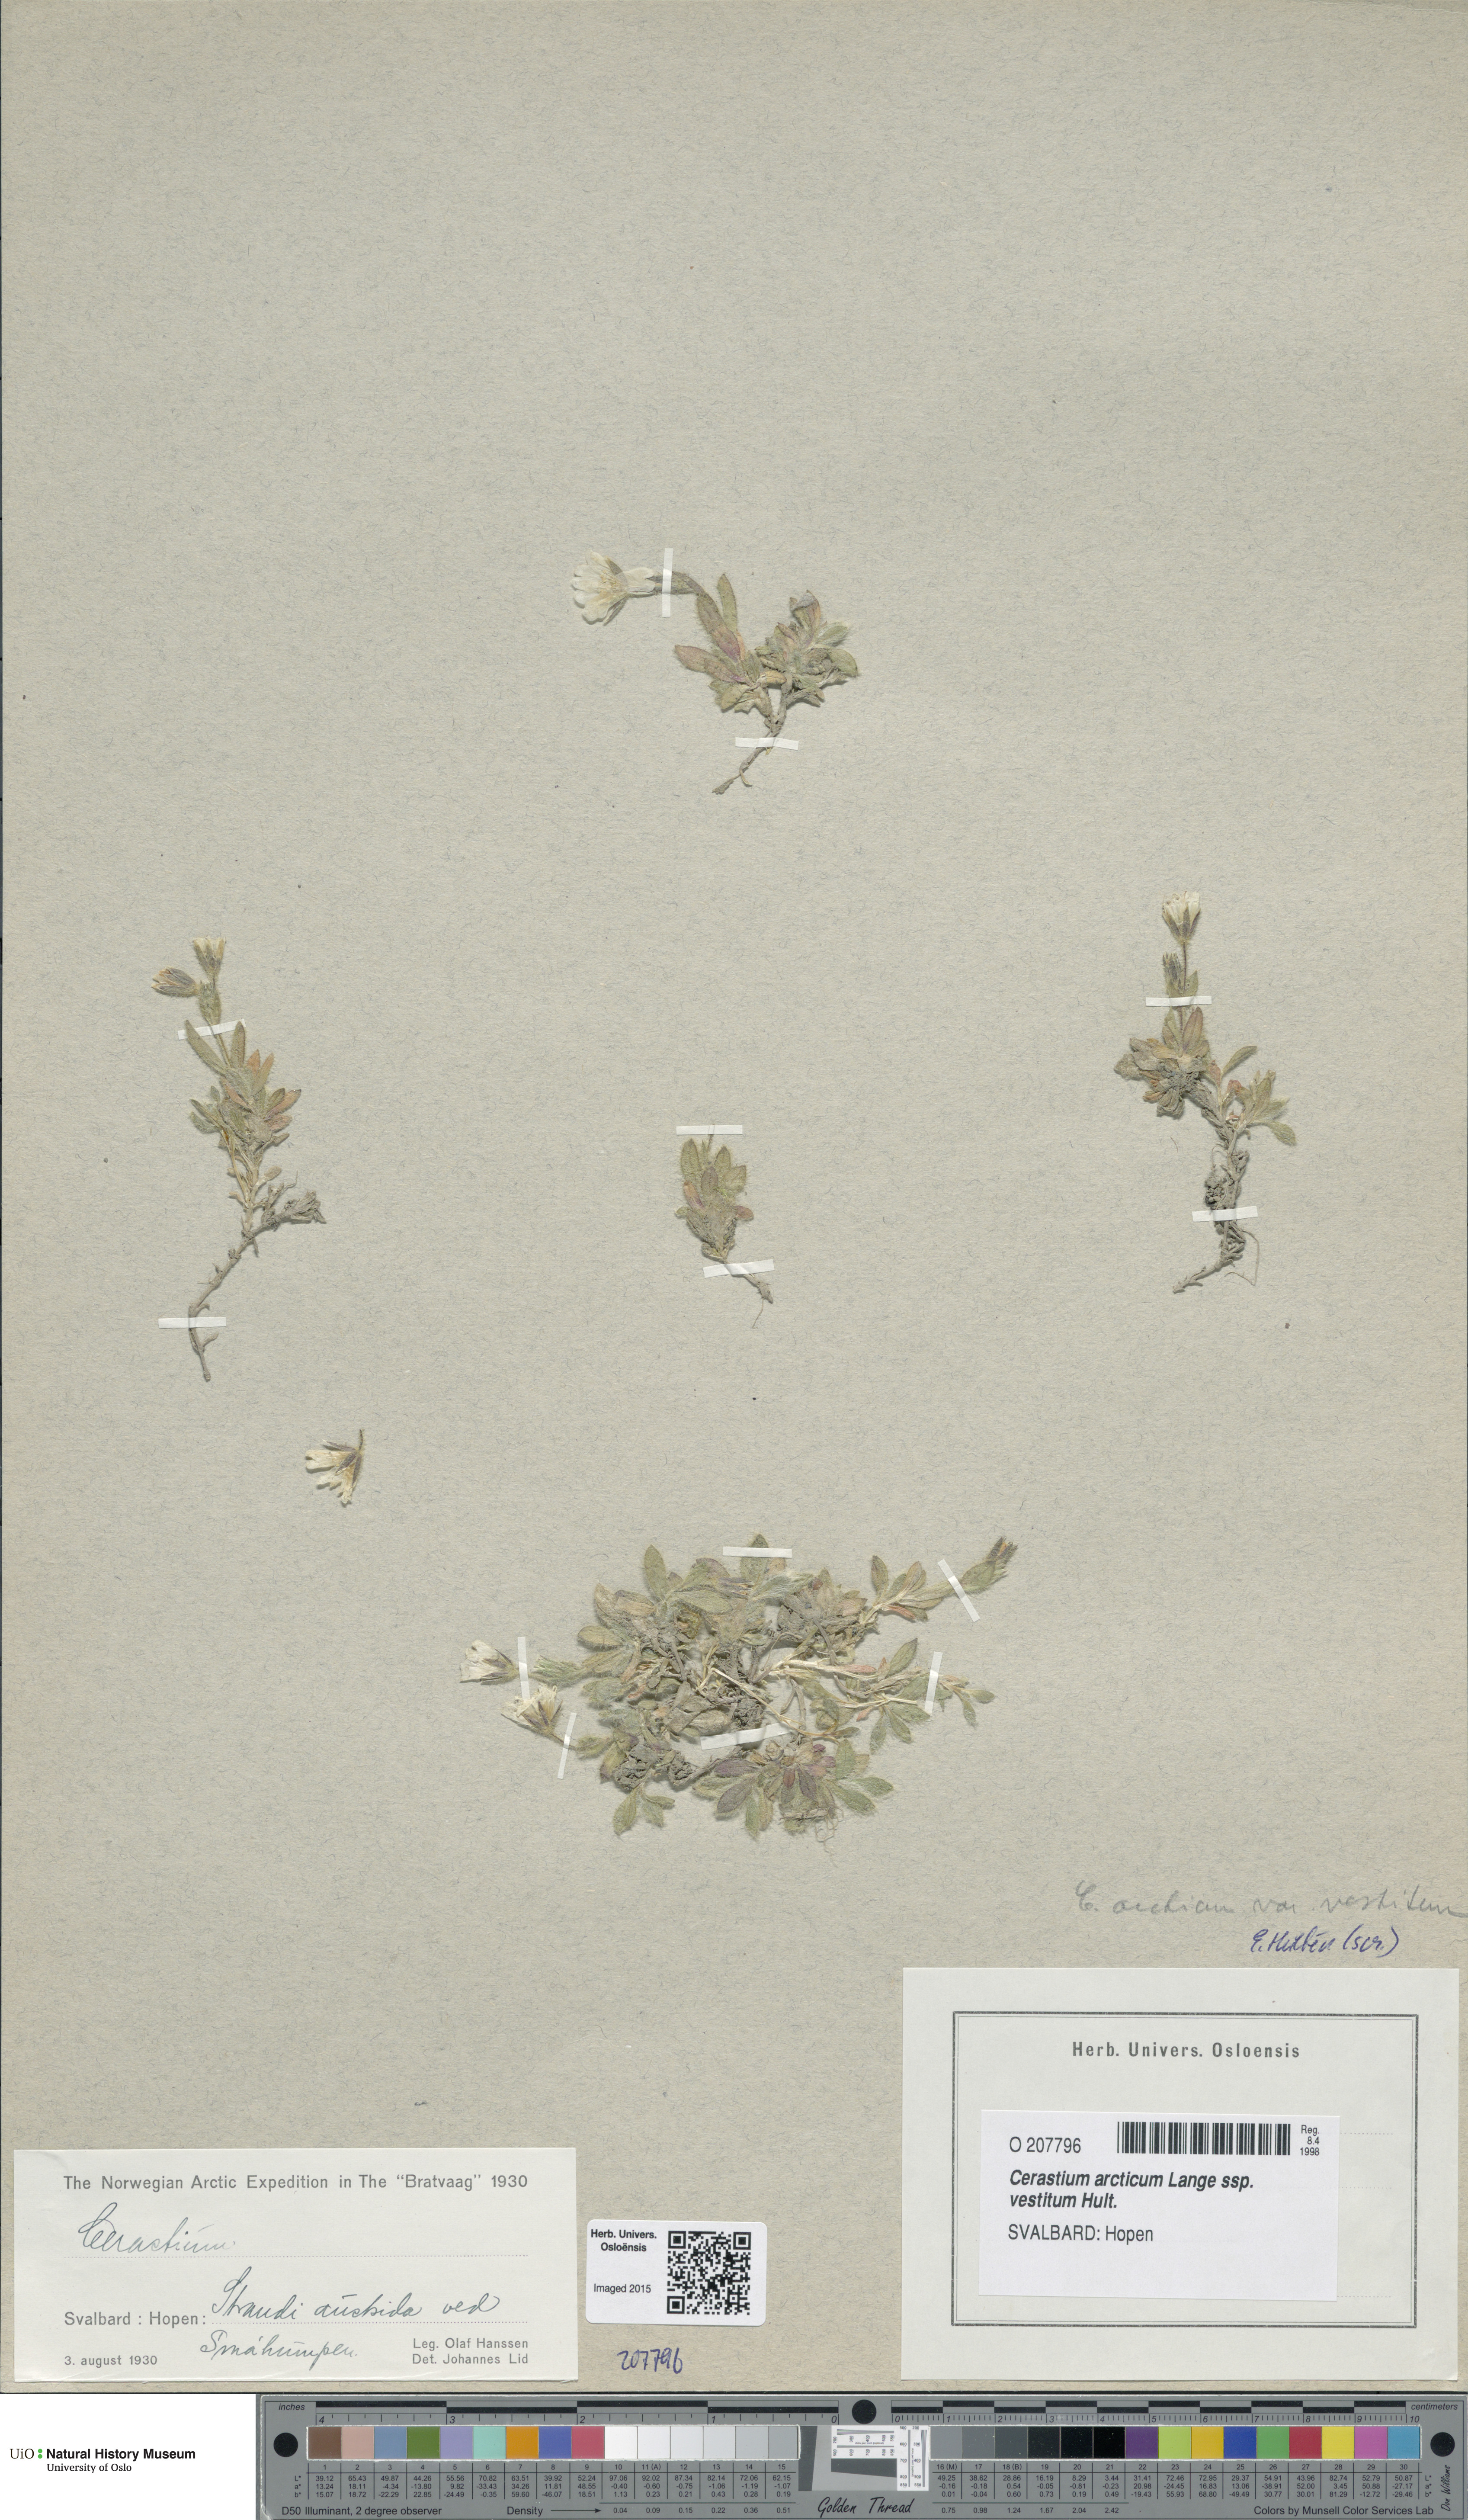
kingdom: Plantae
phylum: Tracheophyta
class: Magnoliopsida
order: Caryophyllales
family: Caryophyllaceae
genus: Cerastium
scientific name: Cerastium arcticum
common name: Arctic mouse-ear
